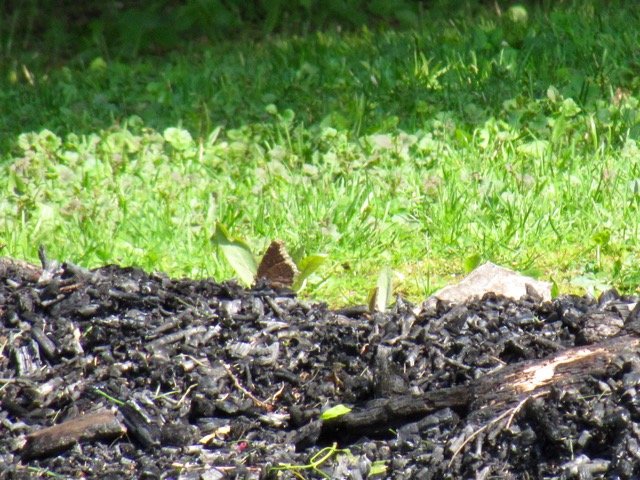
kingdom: Animalia
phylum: Arthropoda
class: Insecta
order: Lepidoptera
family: Nymphalidae
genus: Nymphalis
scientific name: Nymphalis antiopa
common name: Mourning Cloak
